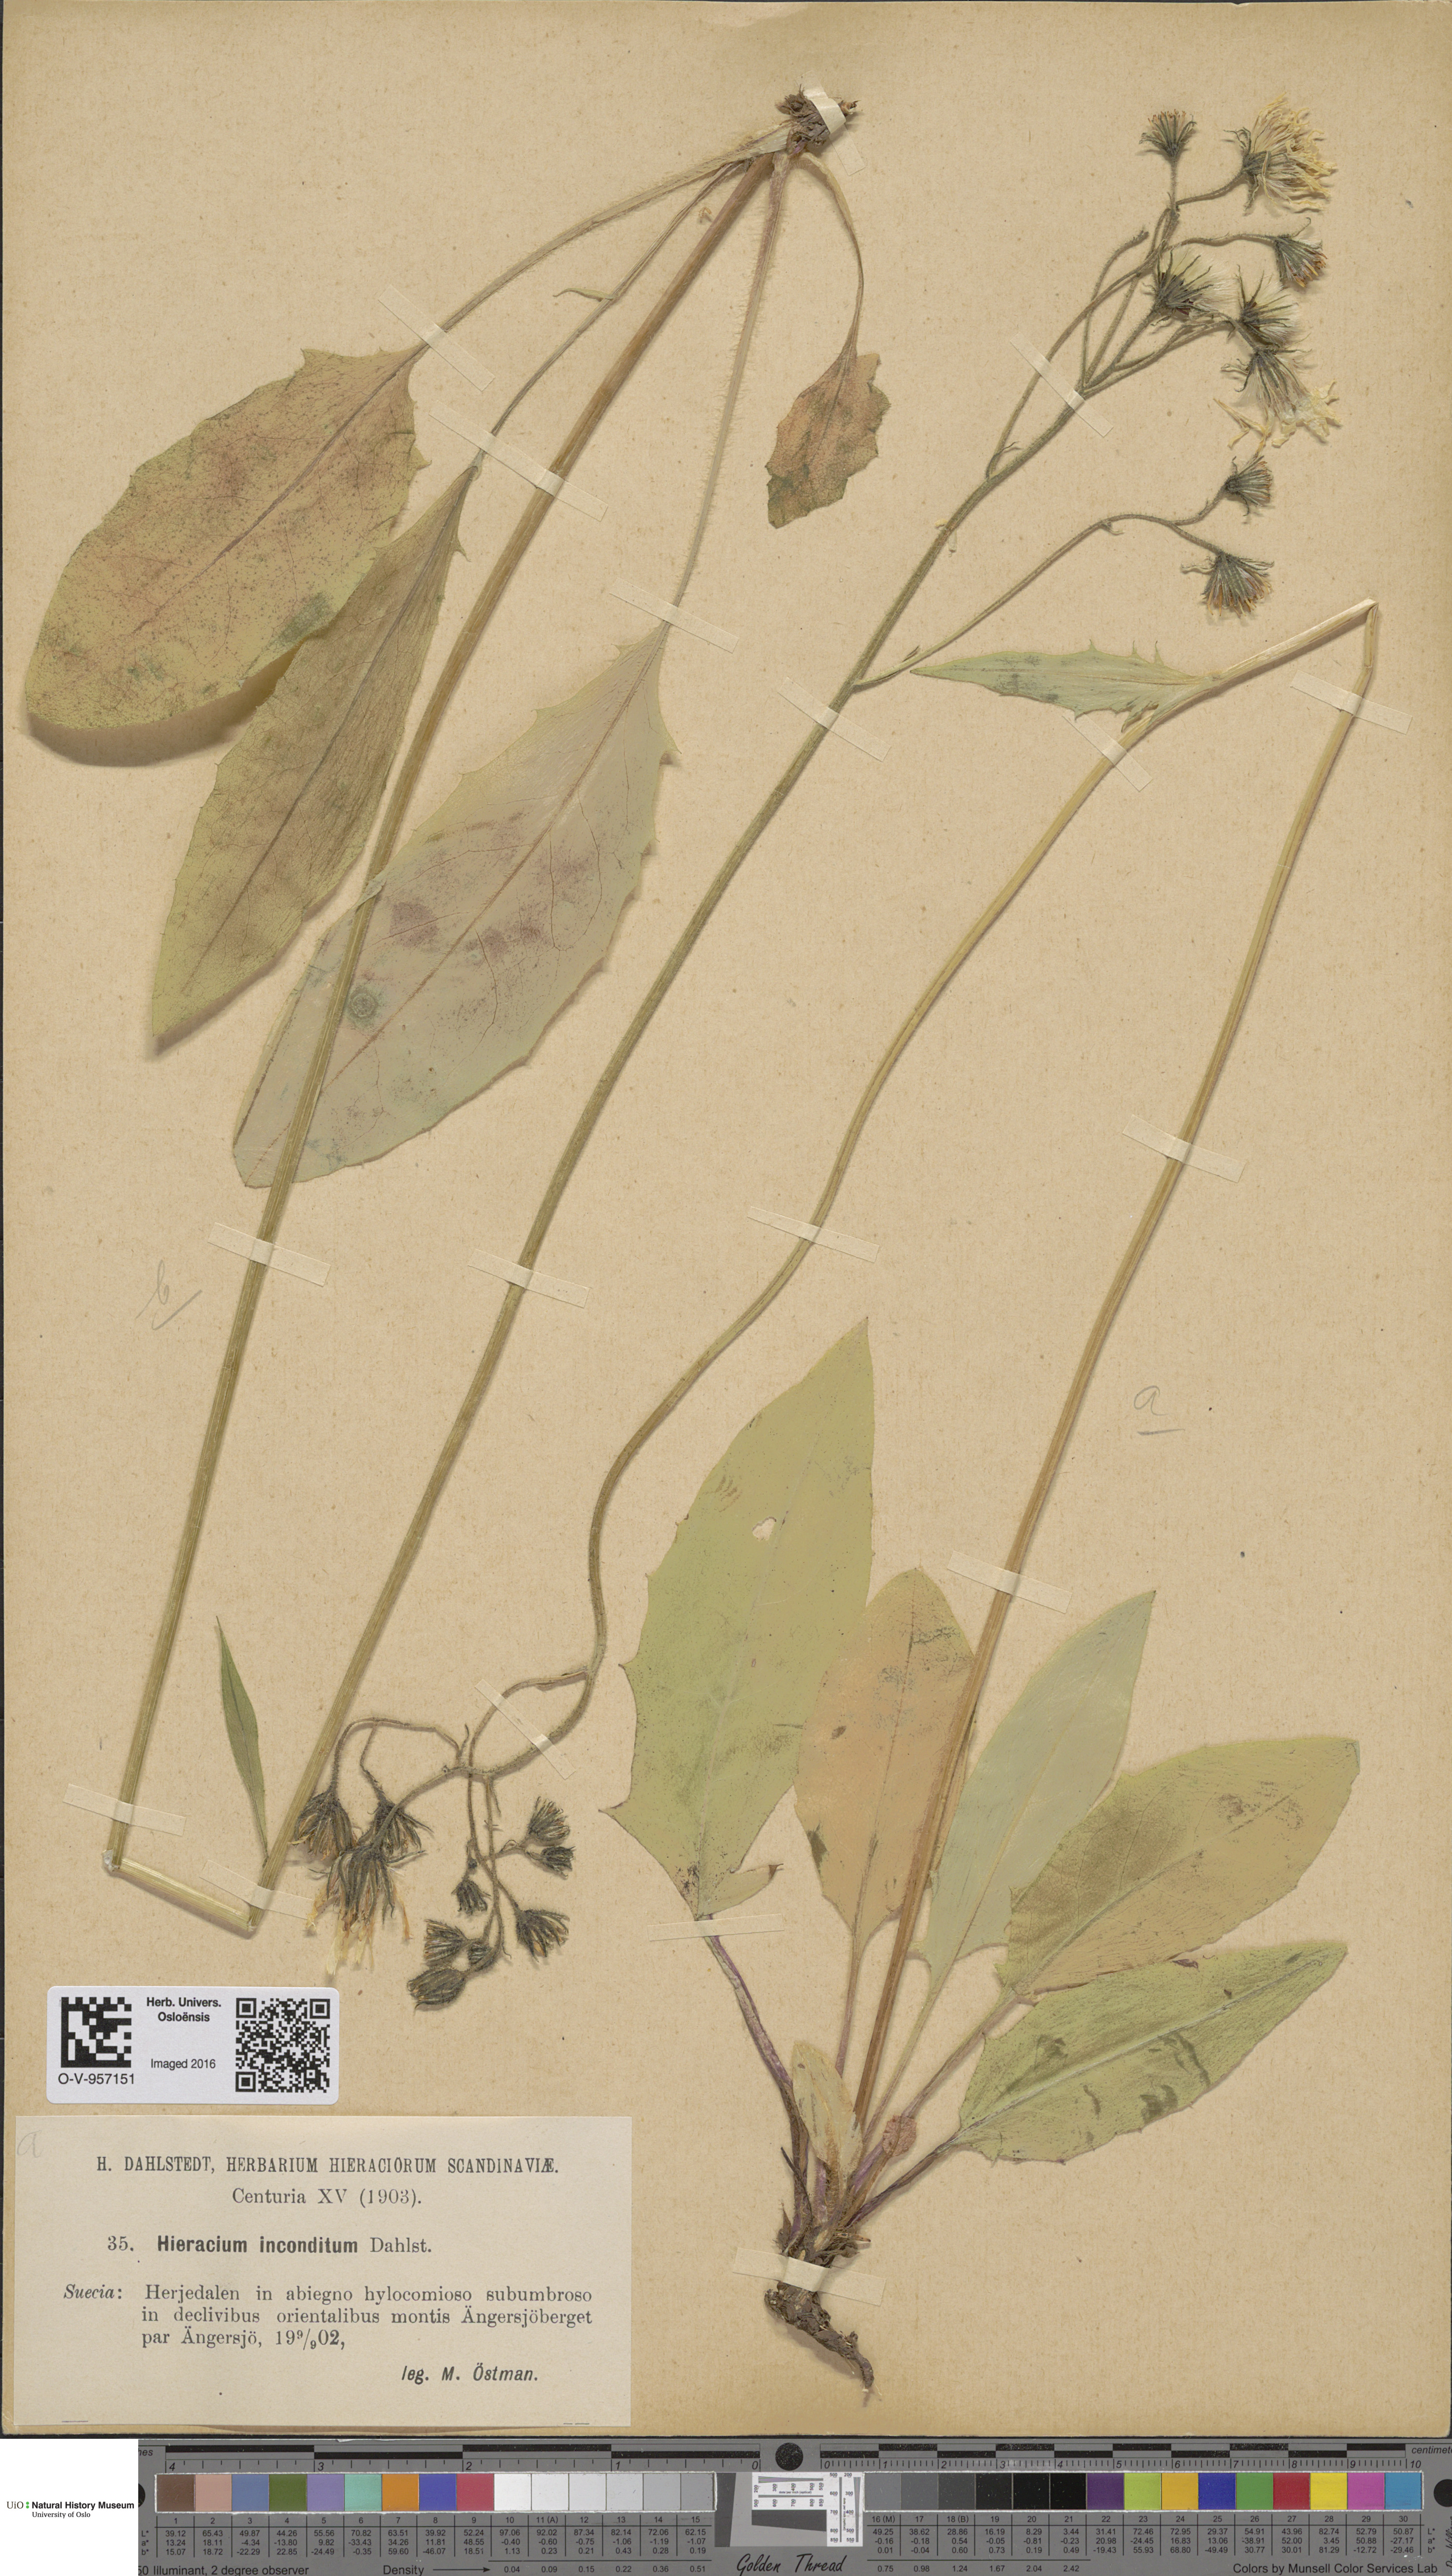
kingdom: Plantae
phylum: Tracheophyta
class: Magnoliopsida
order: Asterales
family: Asteraceae
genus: Hieracium
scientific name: Hieracium
